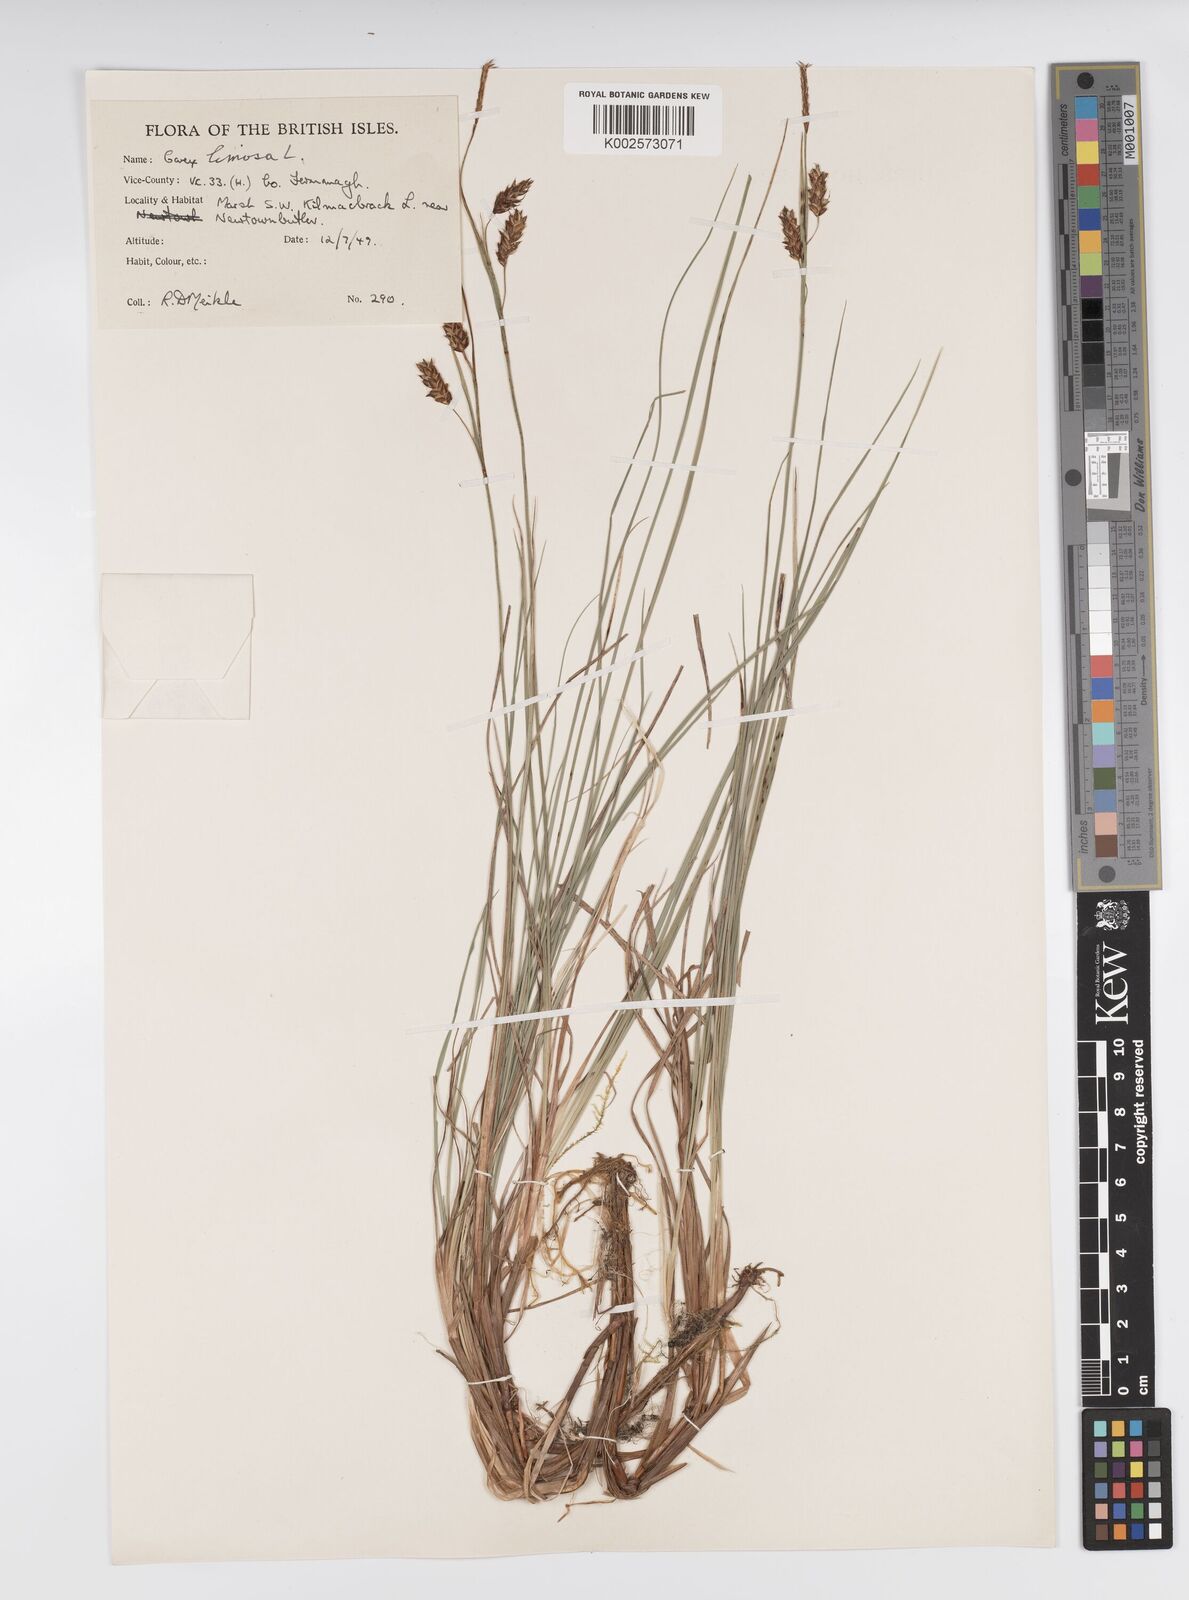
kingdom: Plantae
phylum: Tracheophyta
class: Liliopsida
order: Poales
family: Cyperaceae
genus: Carex
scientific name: Carex limosa
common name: Bog sedge
